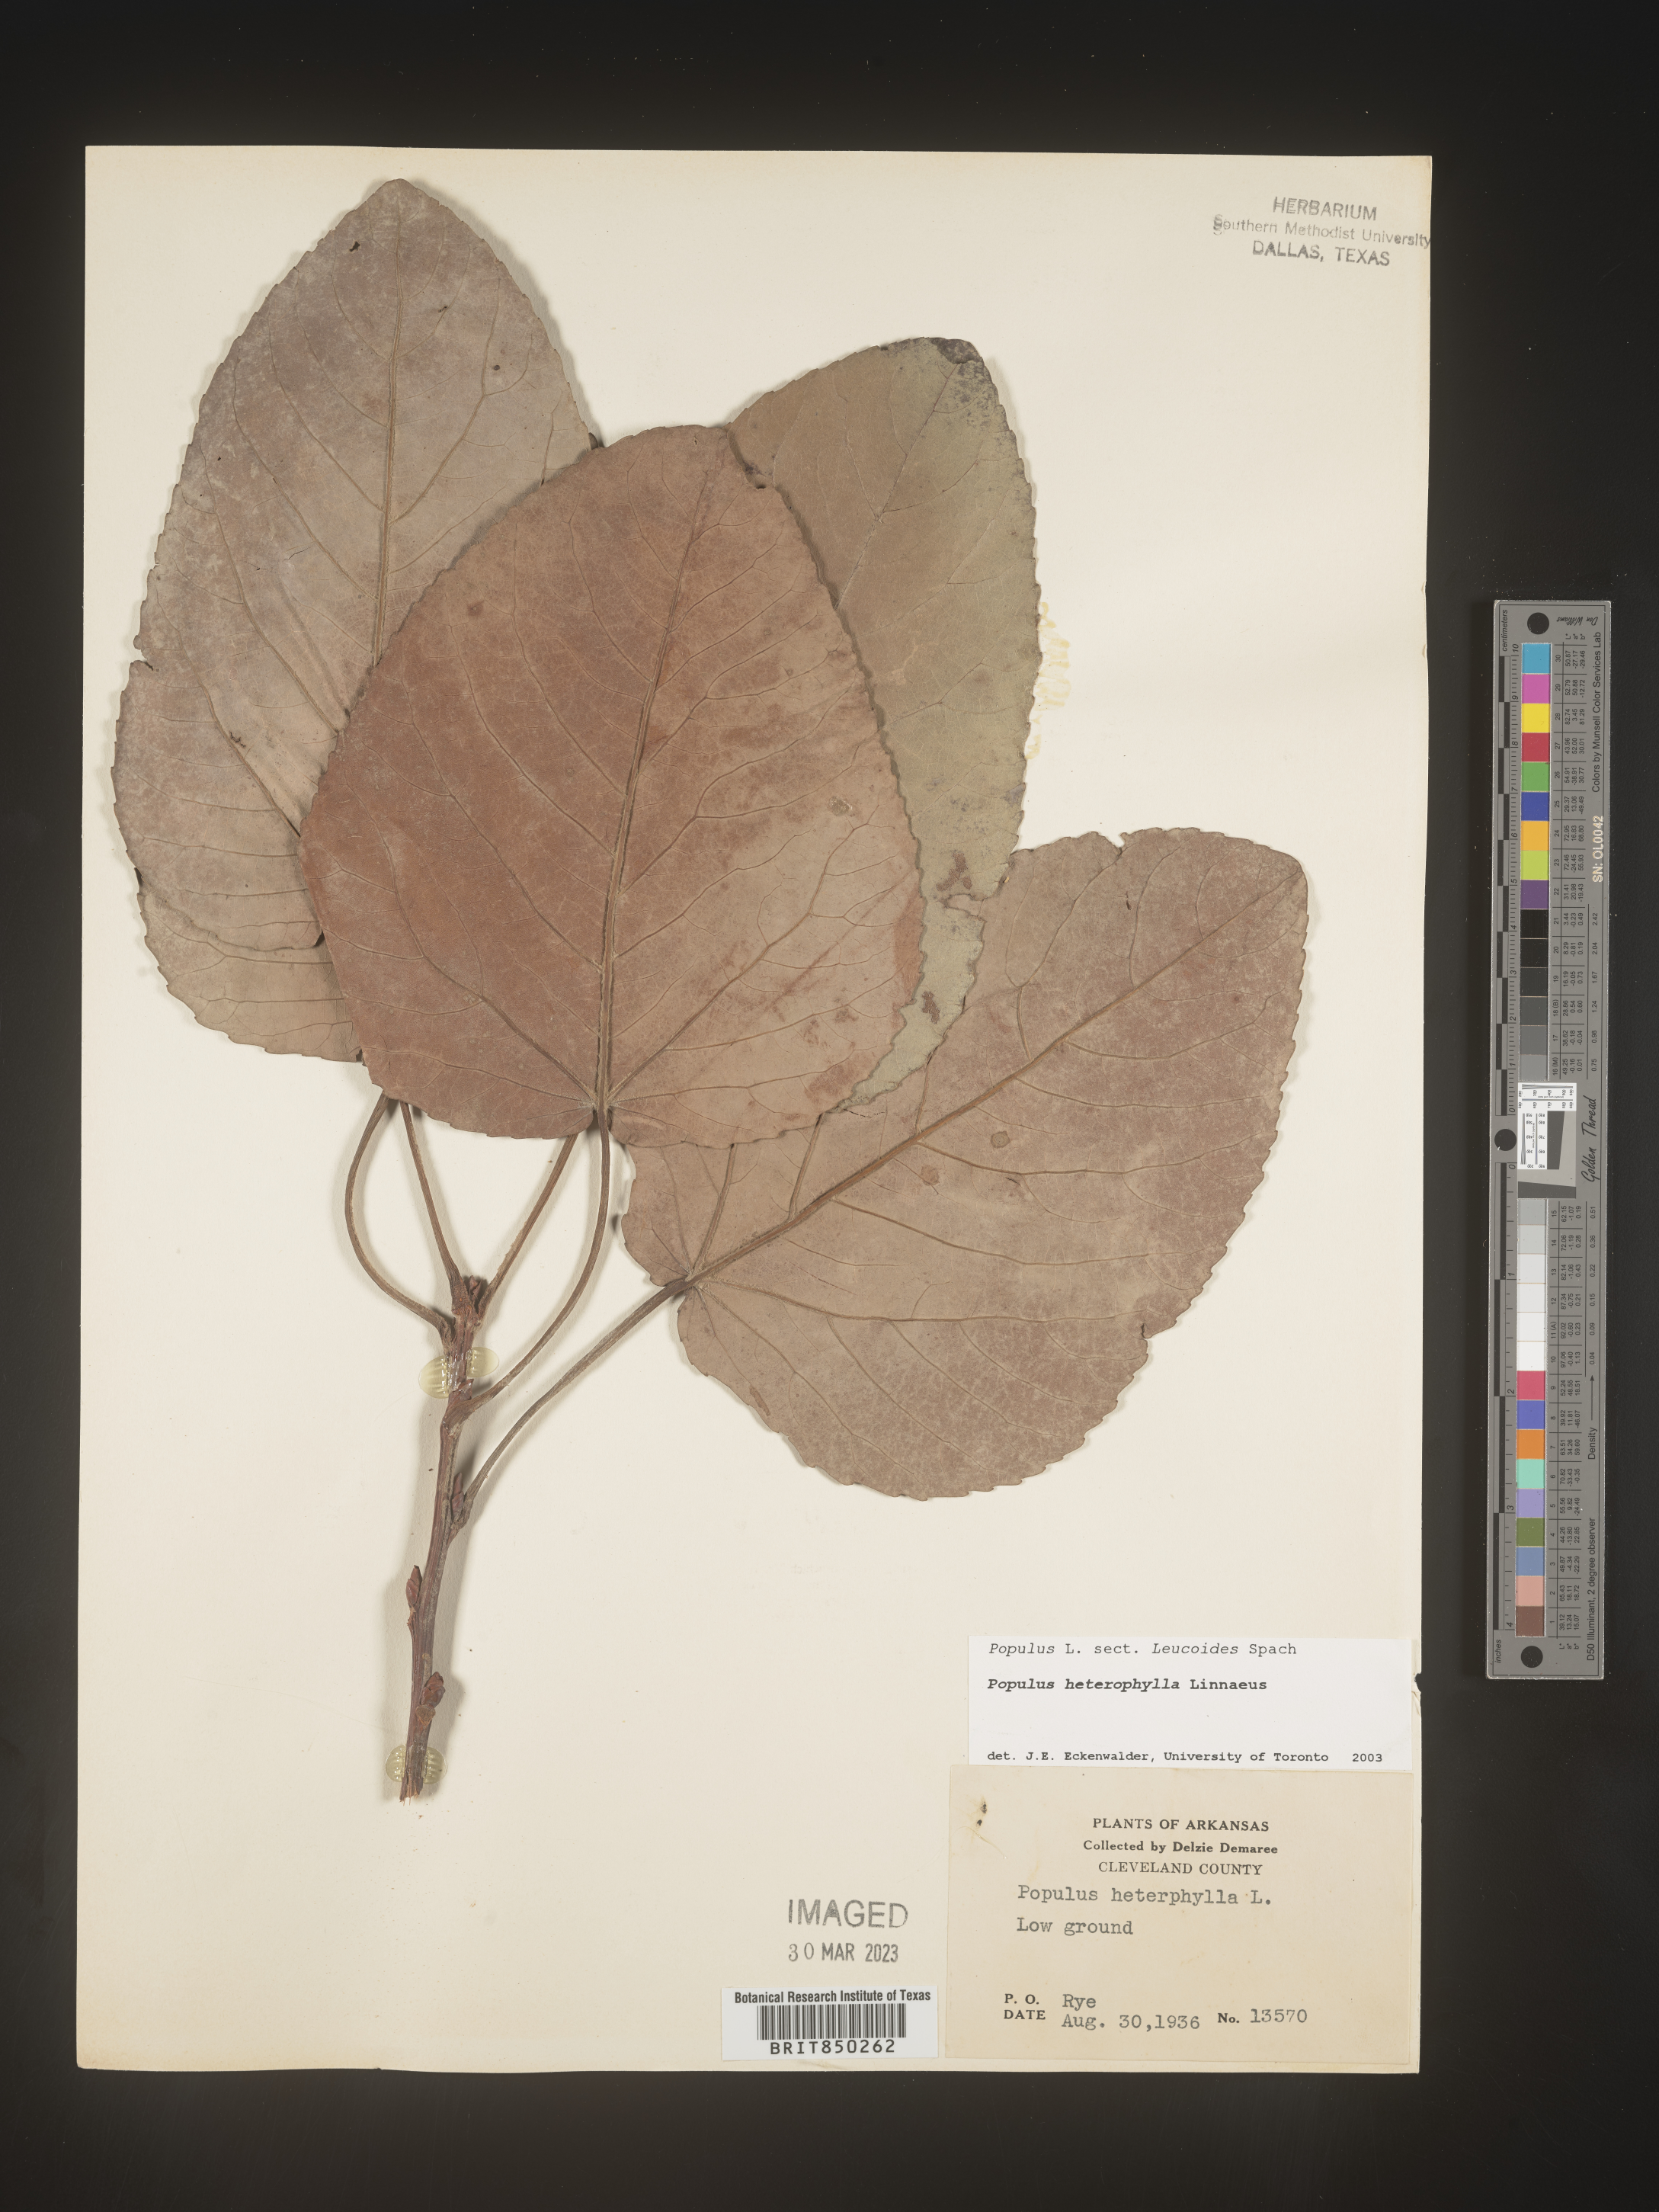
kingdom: Plantae
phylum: Tracheophyta
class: Magnoliopsida
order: Malpighiales
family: Salicaceae
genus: Populus
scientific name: Populus heterophylla
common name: Downy poplar
